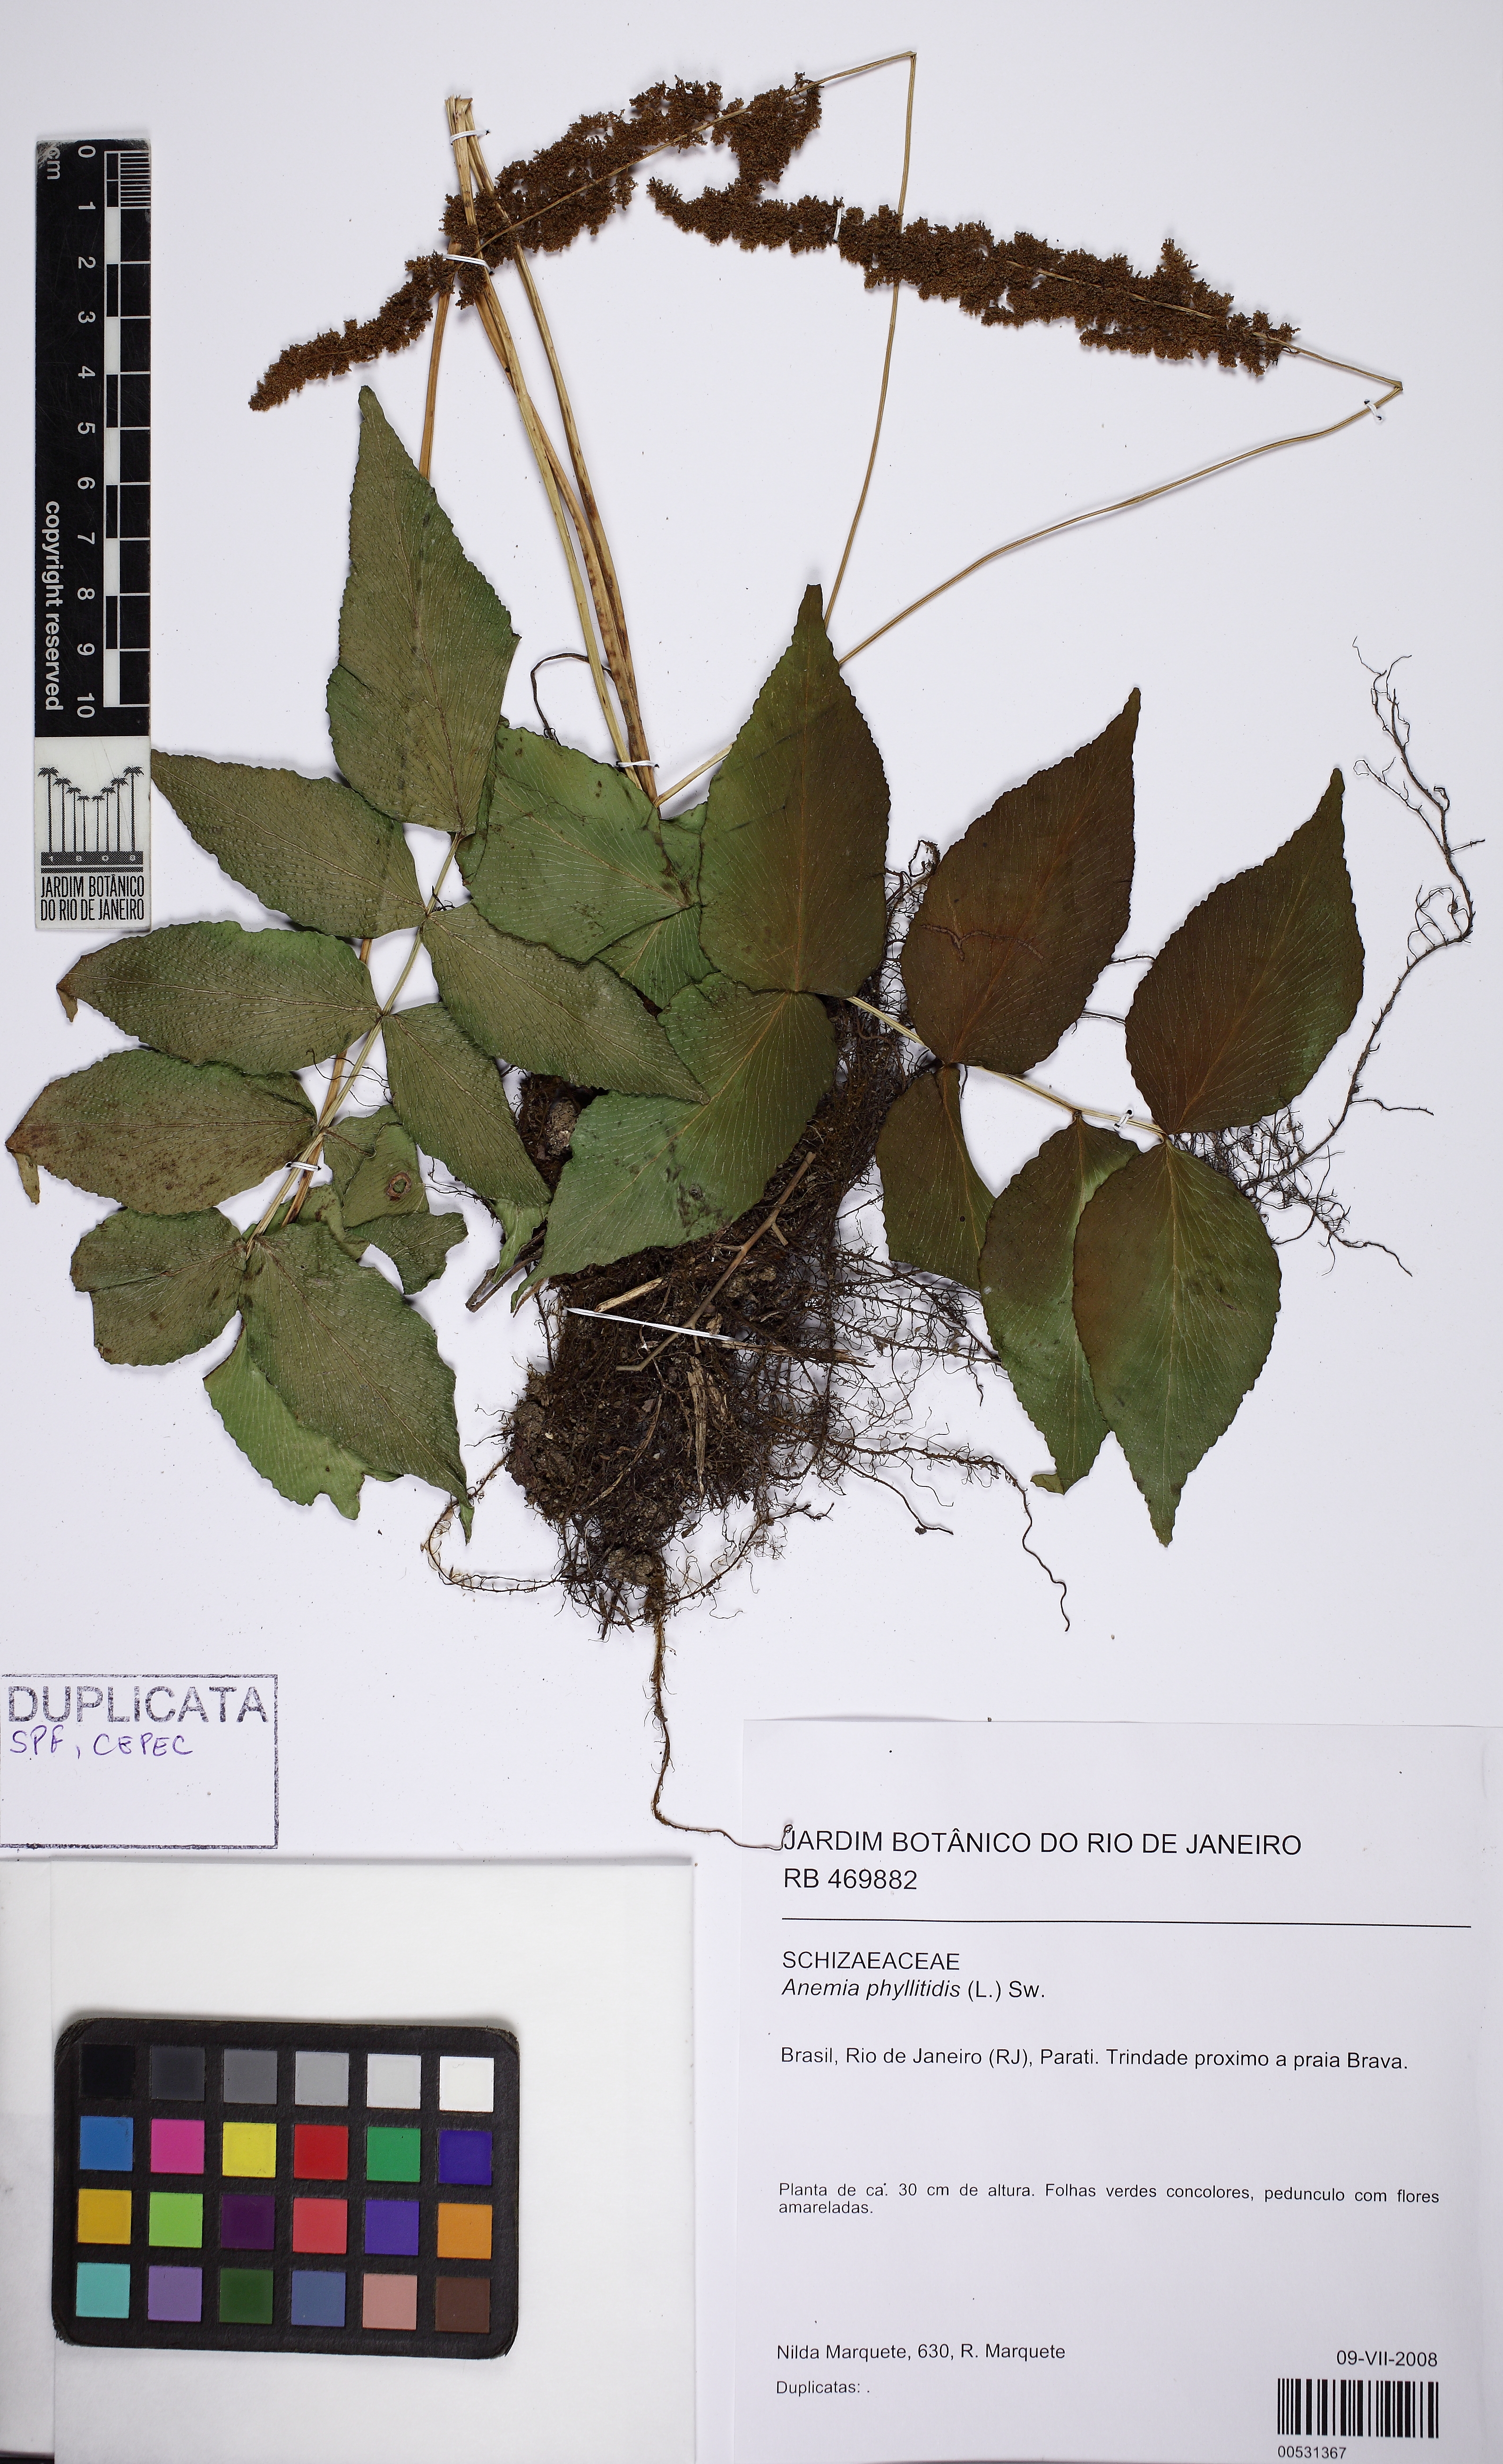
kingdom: Plantae
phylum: Tracheophyta
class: Polypodiopsida
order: Schizaeales
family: Anemiaceae
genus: Anemia
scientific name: Anemia phyllitidis
